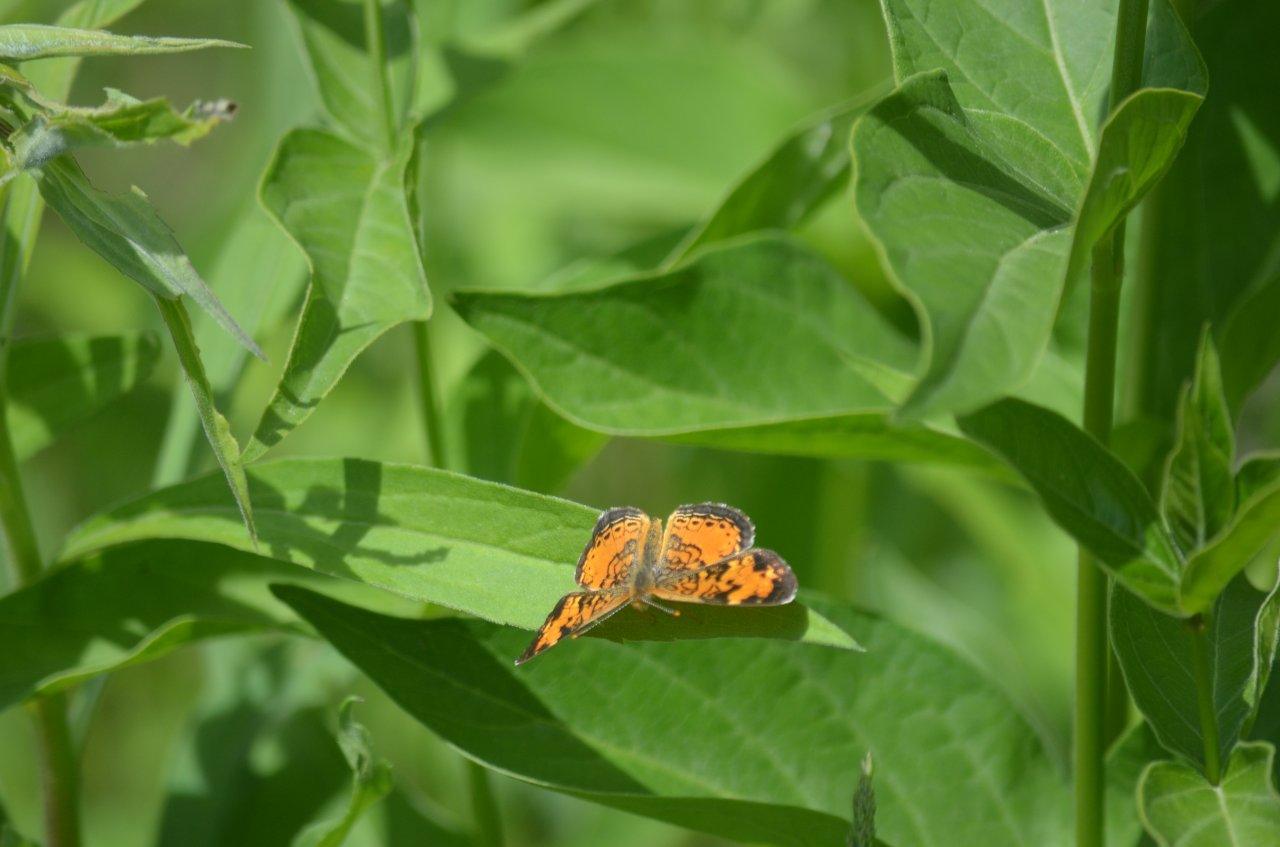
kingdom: Animalia
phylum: Arthropoda
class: Insecta
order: Lepidoptera
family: Nymphalidae
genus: Phyciodes
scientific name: Phyciodes tharos
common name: Northern Crescent
